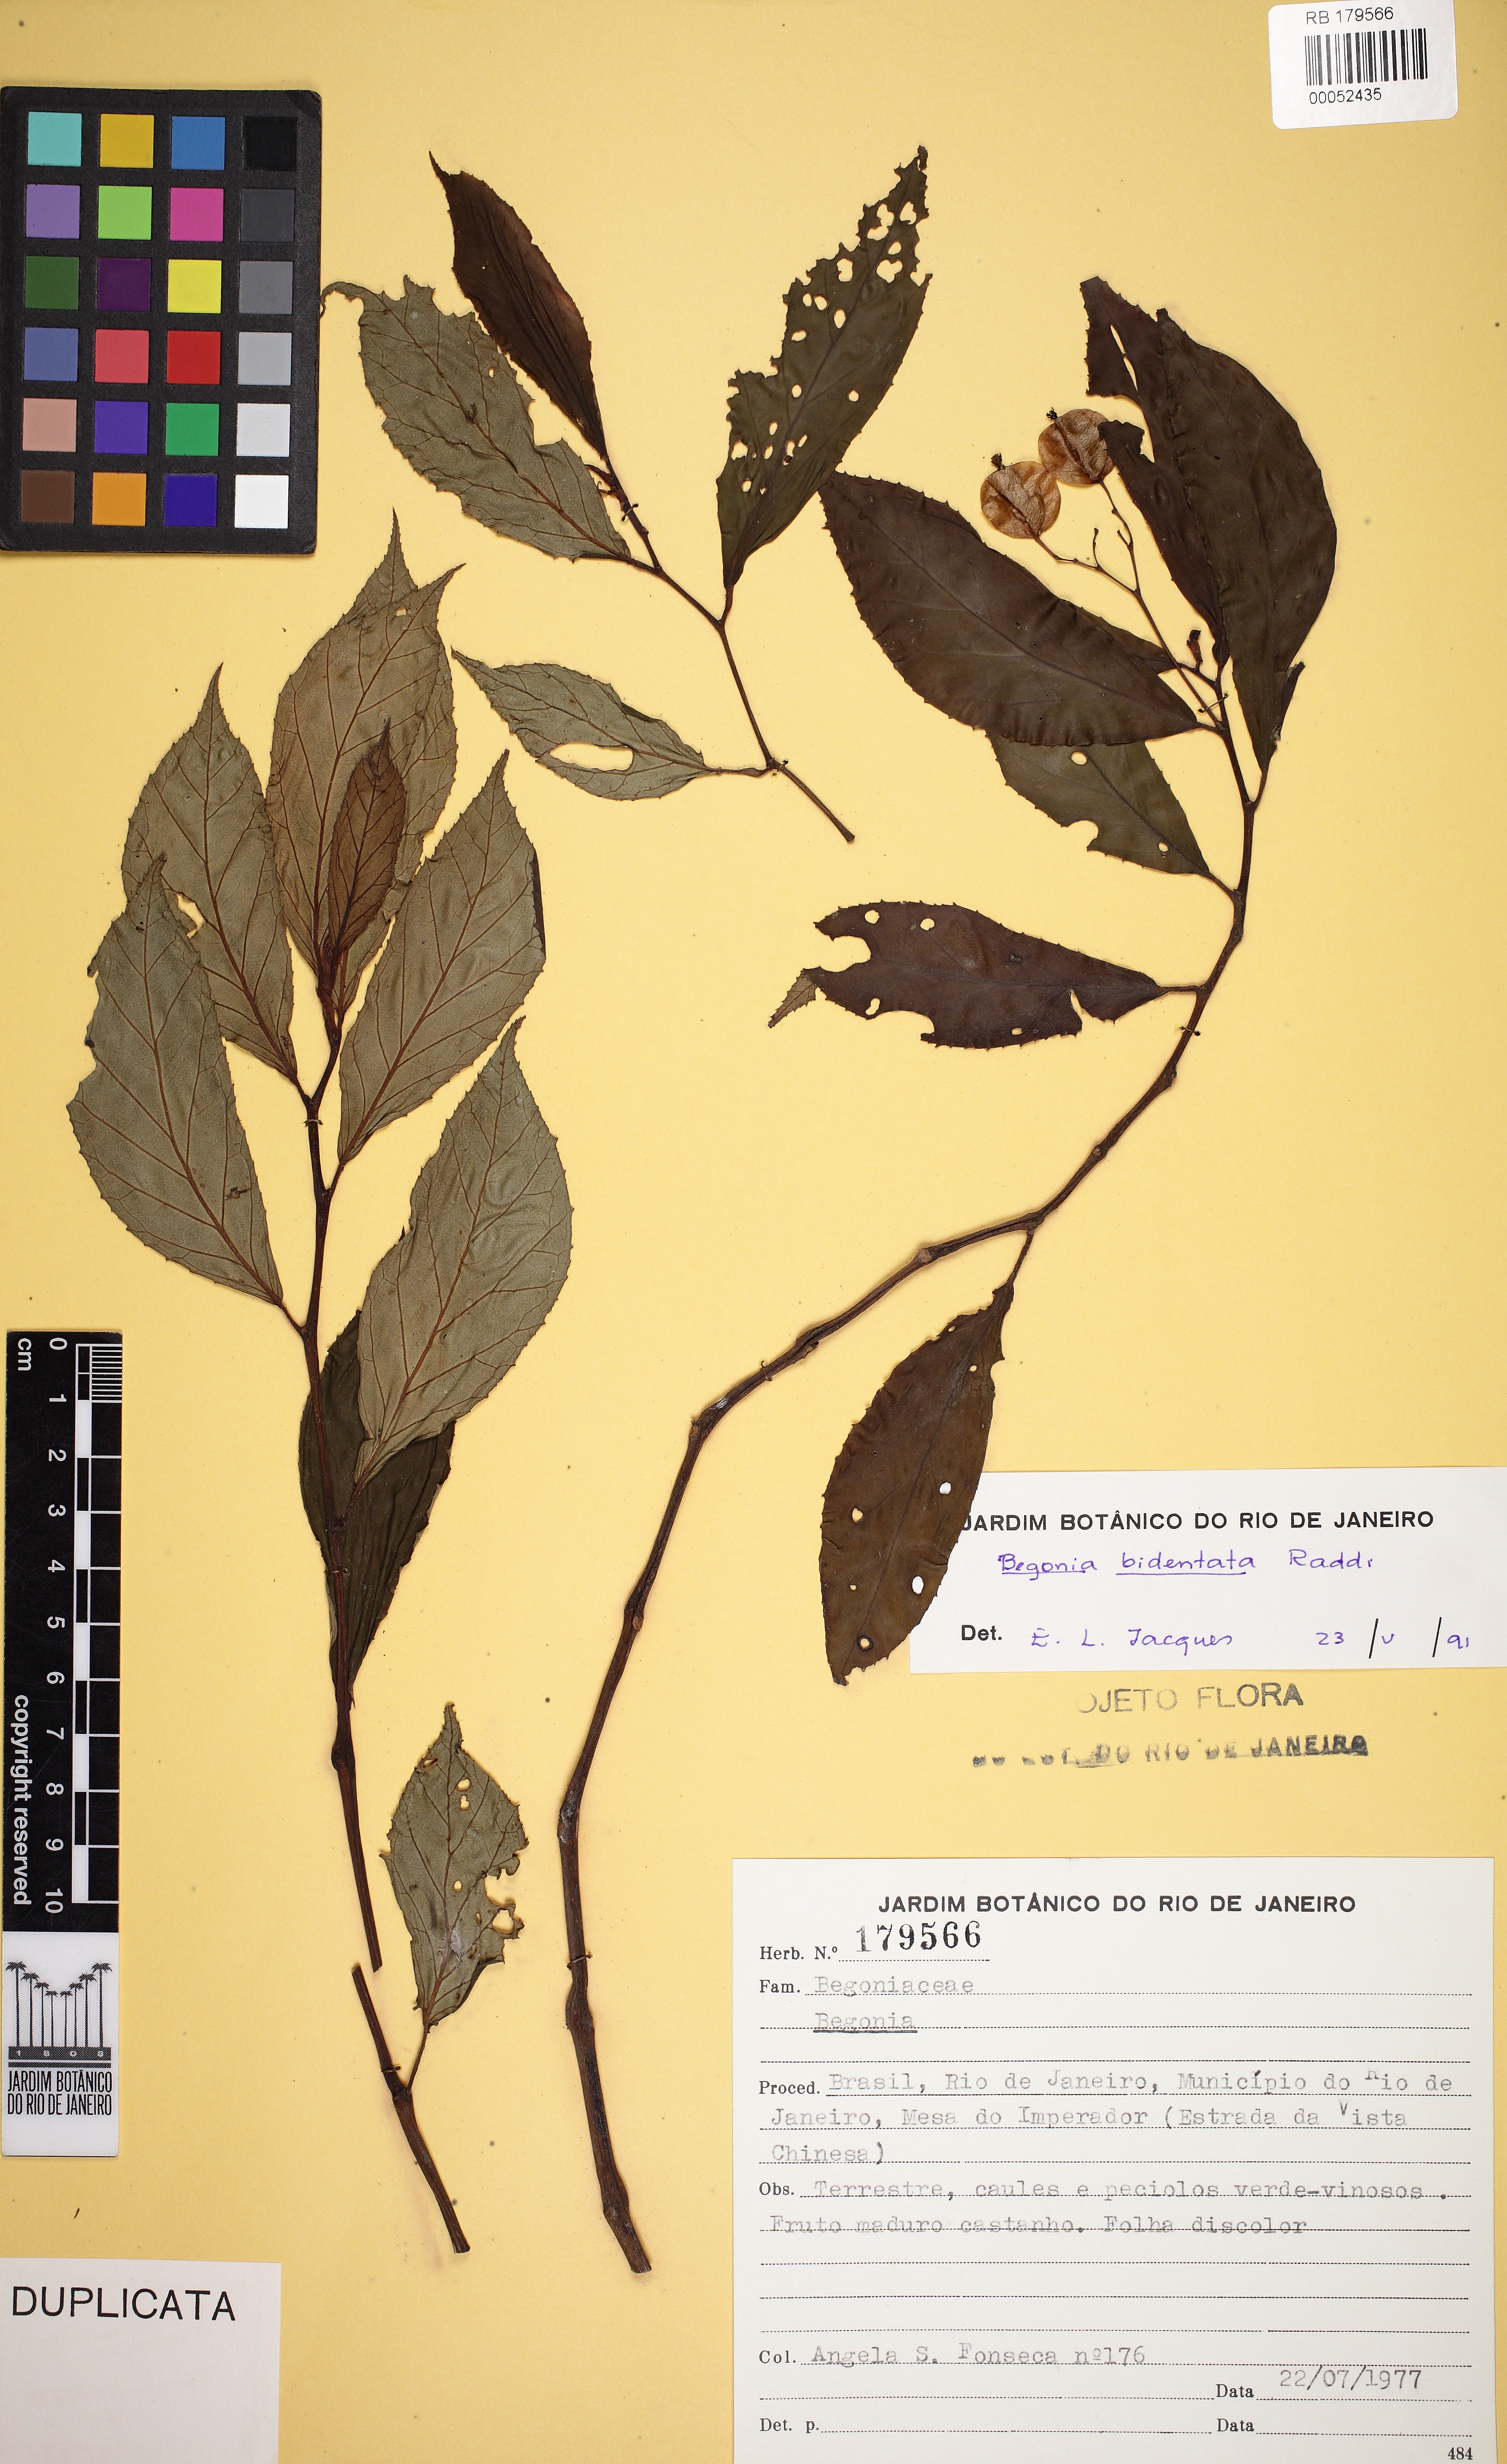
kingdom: Plantae
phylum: Tracheophyta
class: Magnoliopsida
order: Cucurbitales
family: Begoniaceae
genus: Begonia
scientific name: Begonia bidentata
